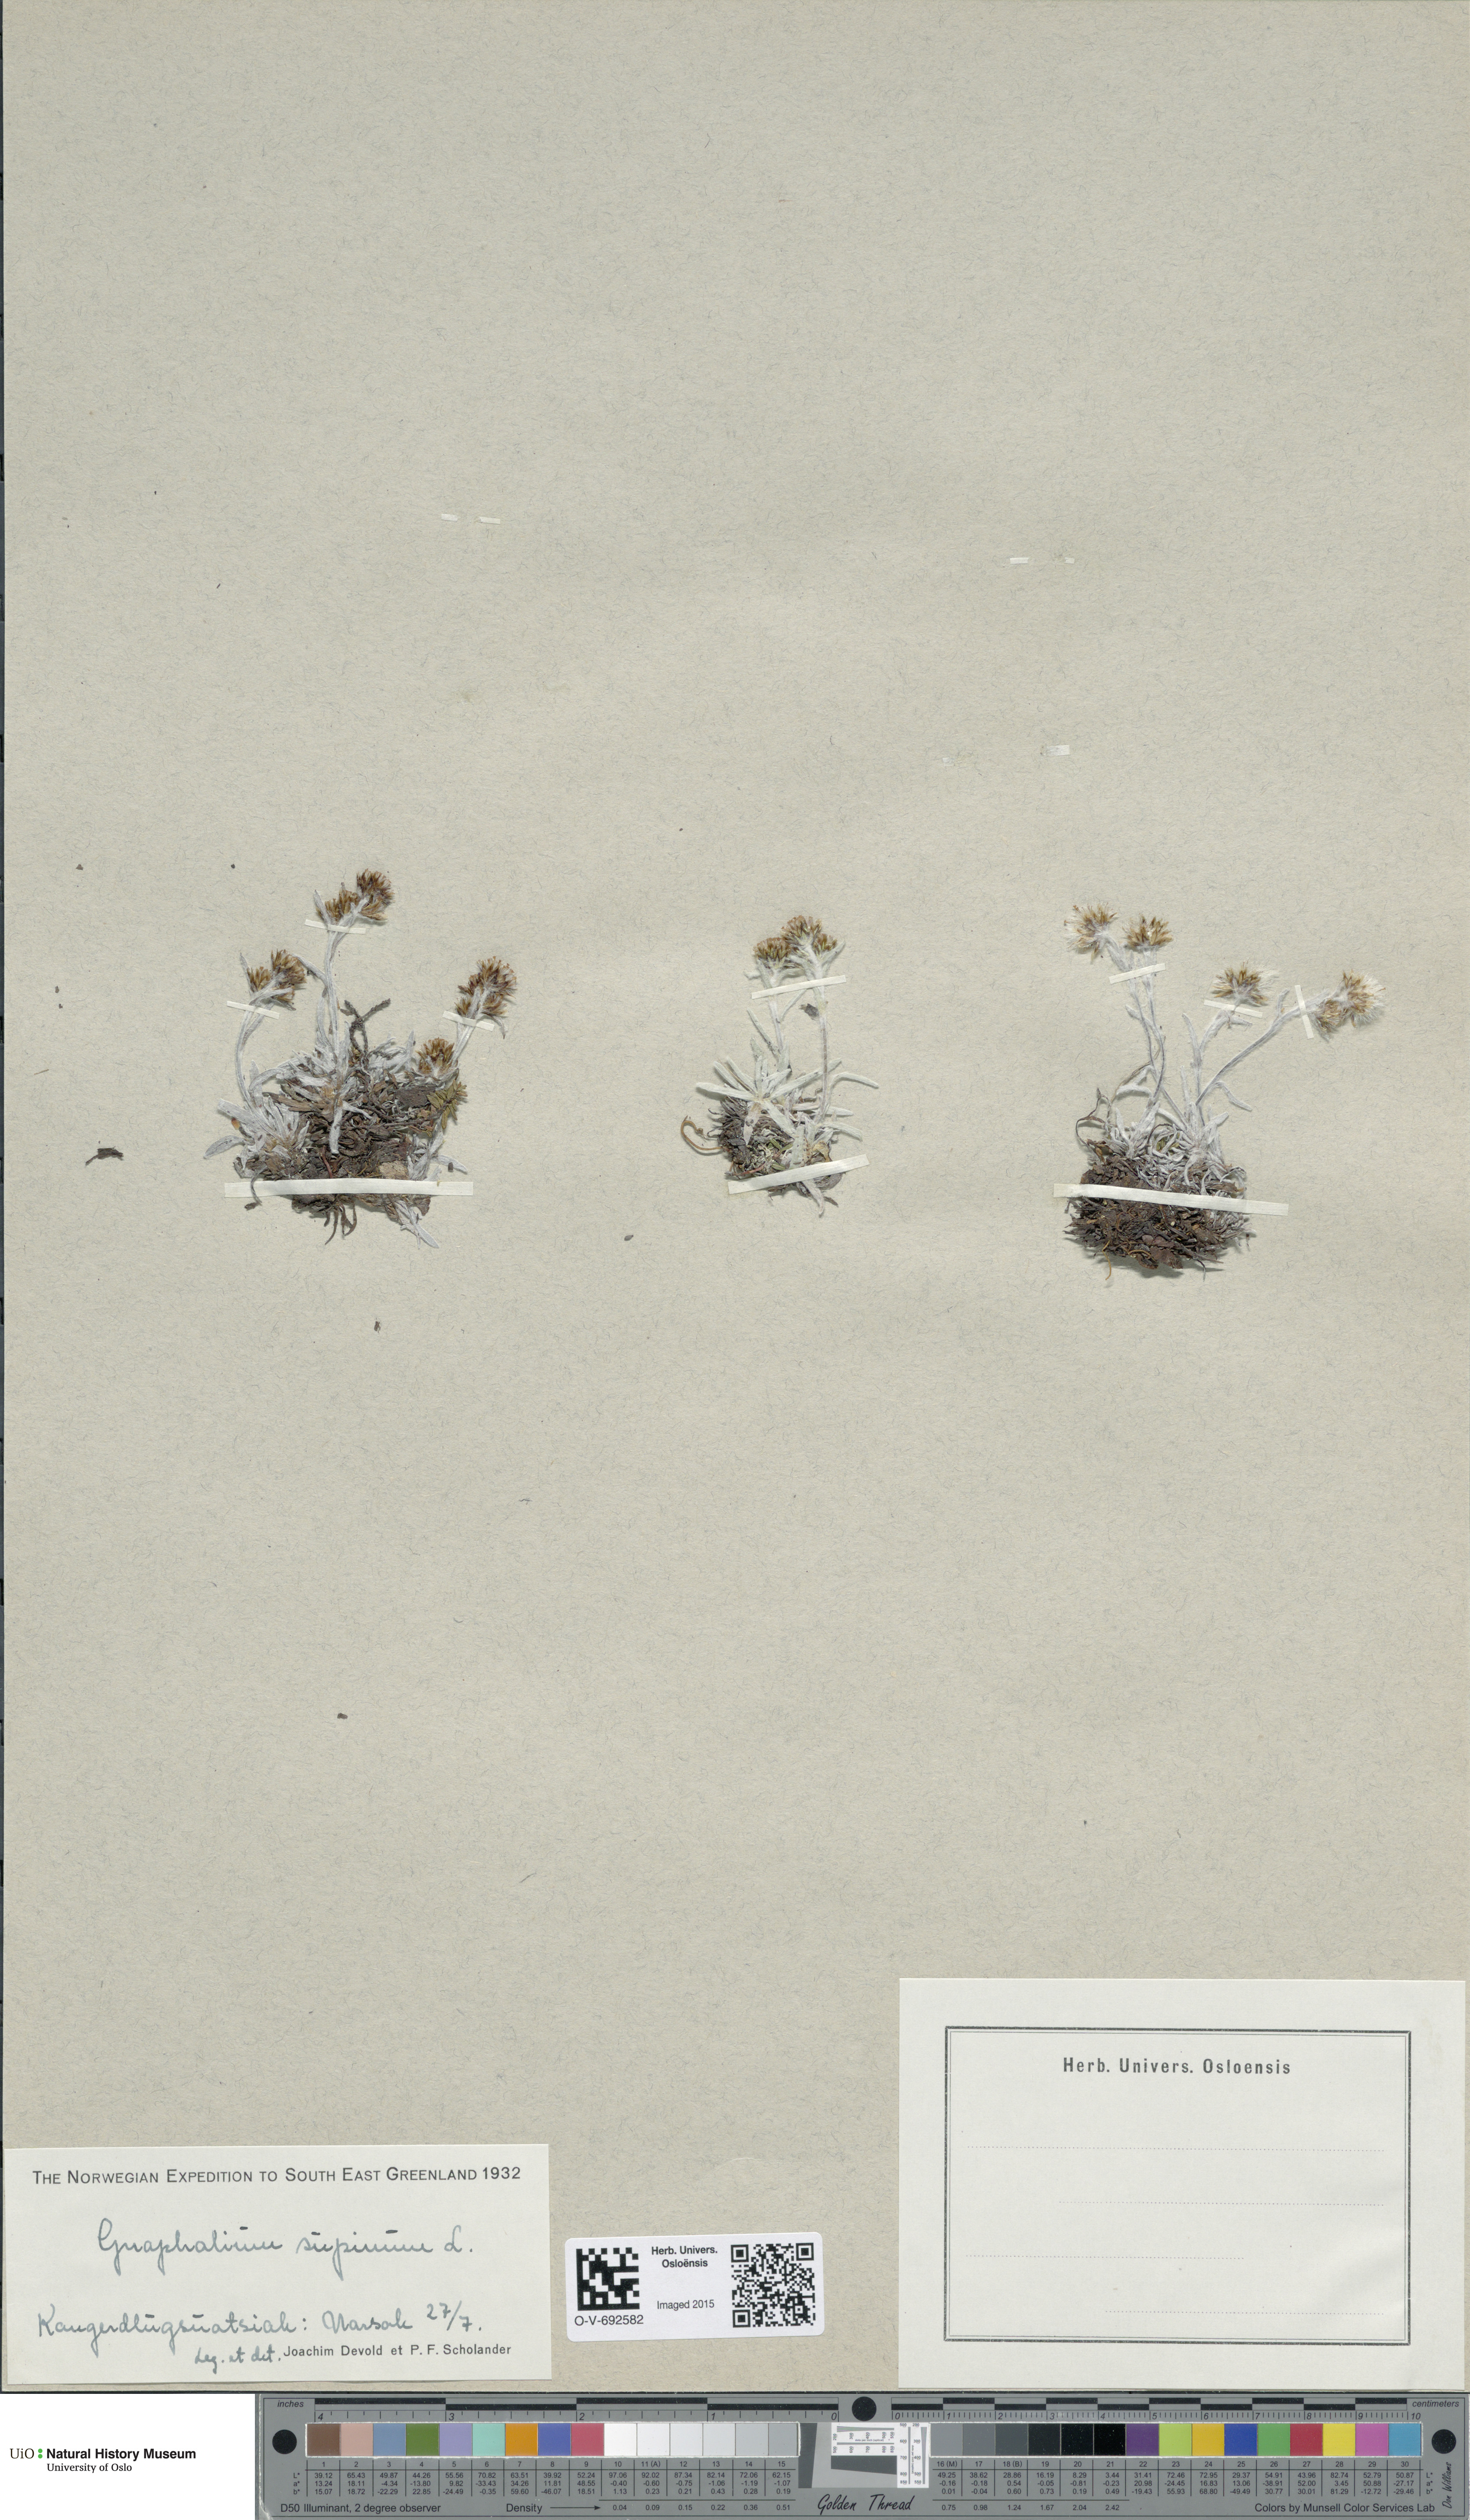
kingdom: Plantae
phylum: Tracheophyta
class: Magnoliopsida
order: Asterales
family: Asteraceae
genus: Omalotheca
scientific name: Omalotheca supina
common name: Alpine arctic-cudweed
